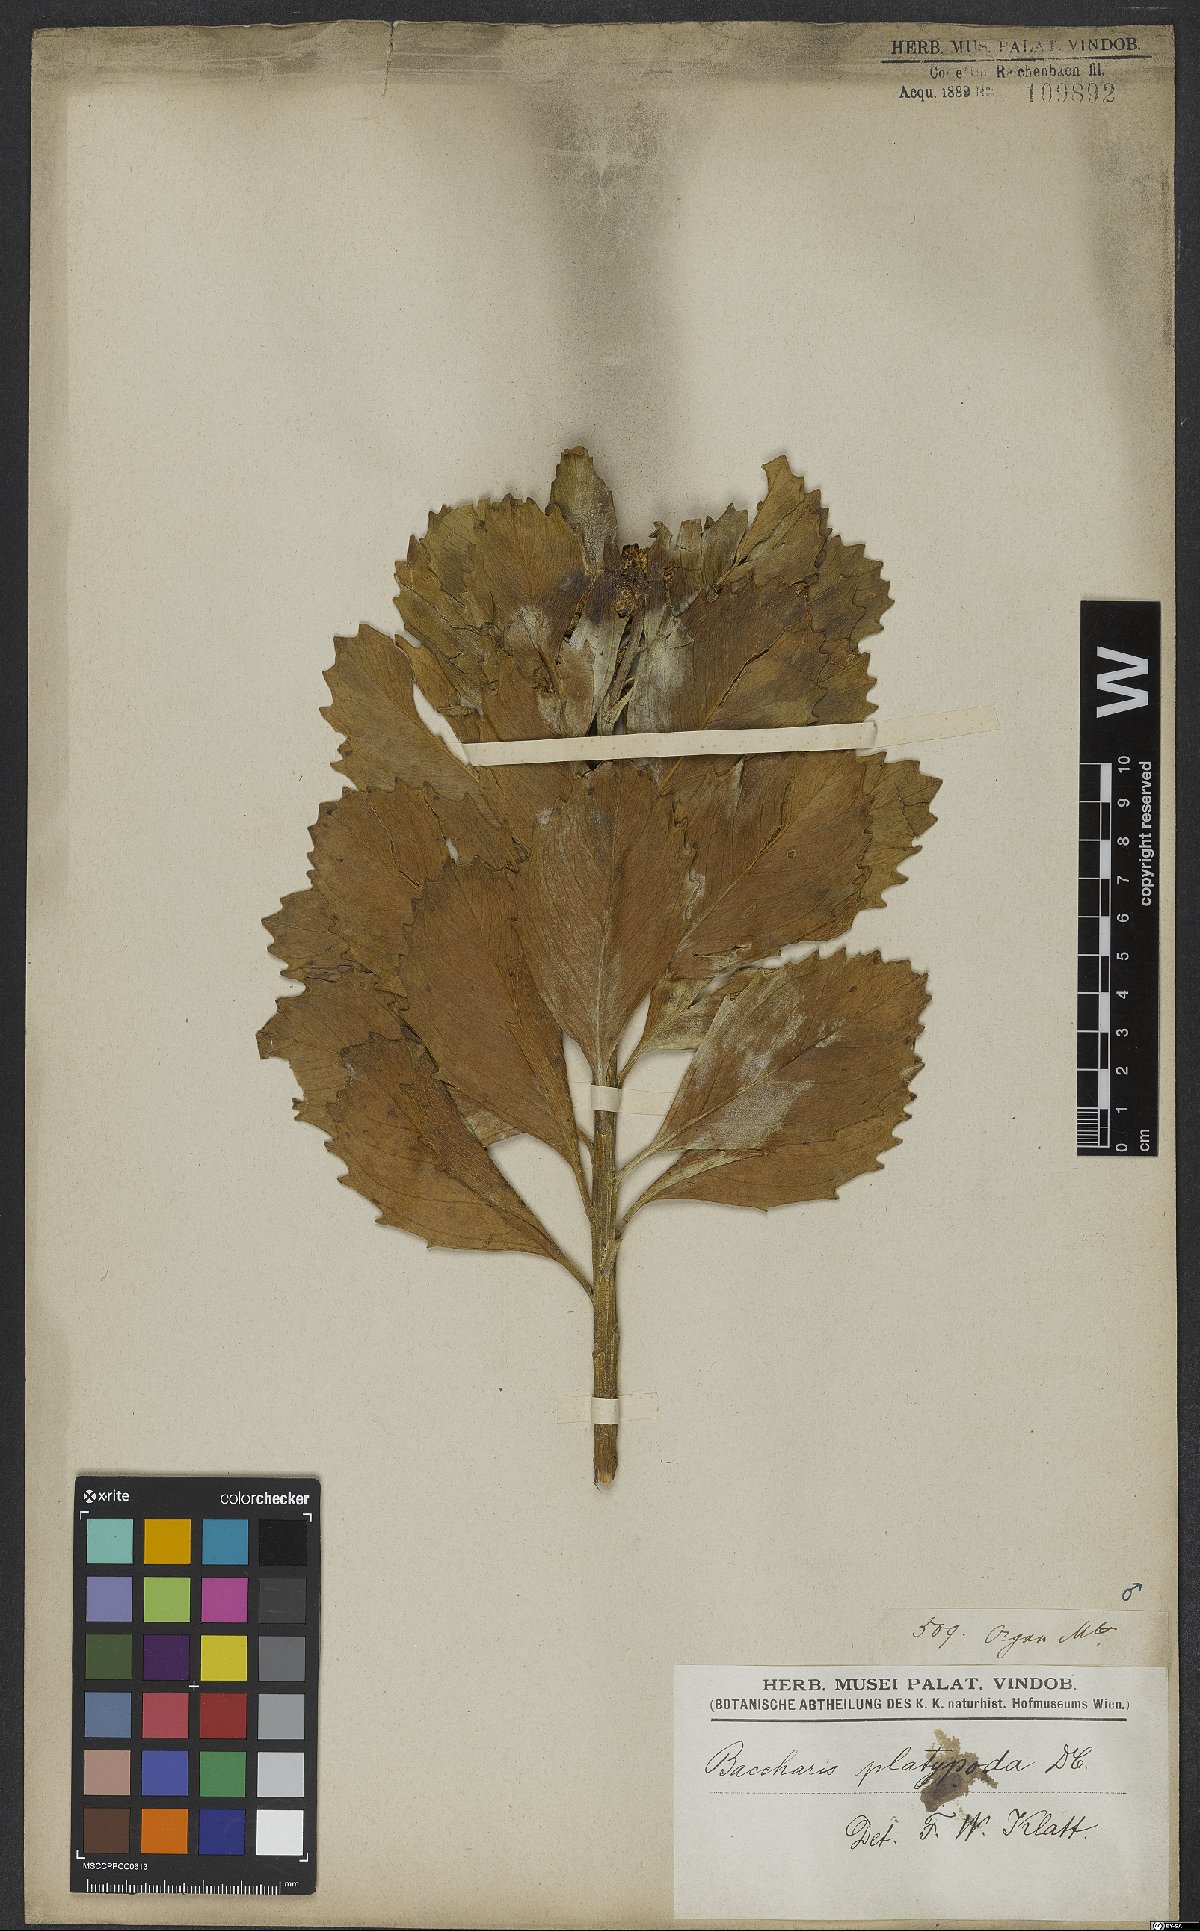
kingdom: Plantae
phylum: Tracheophyta
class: Magnoliopsida
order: Asterales
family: Asteraceae
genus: Baccharis
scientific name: Baccharis platypoda
